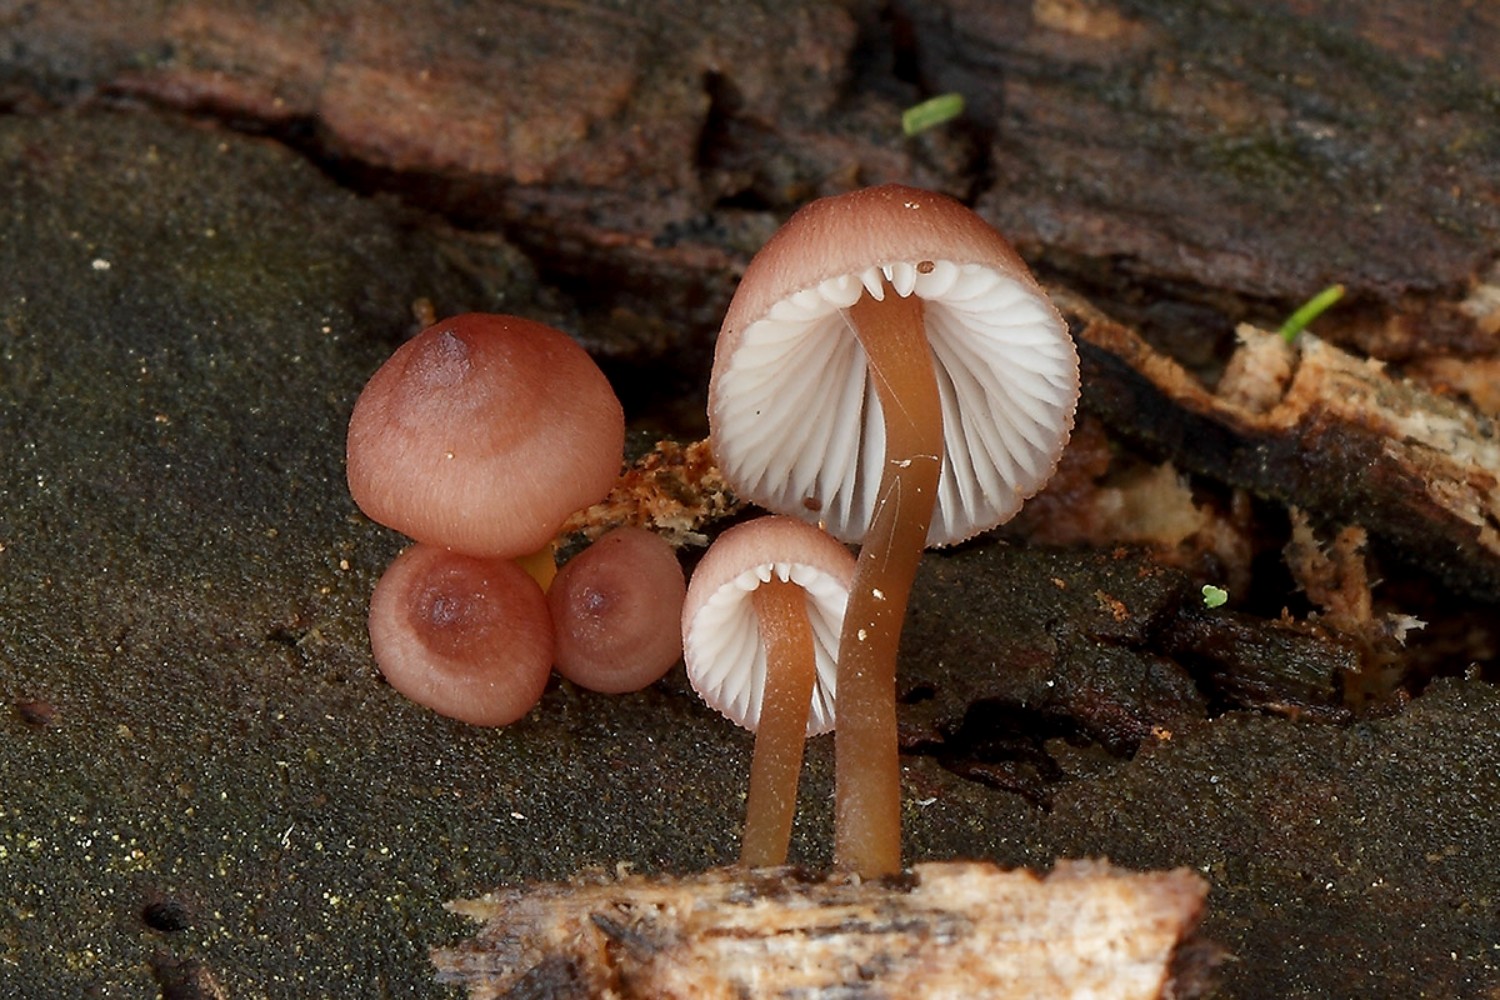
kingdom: Fungi
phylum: Basidiomycota
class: Agaricomycetes
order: Agaricales
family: Mycenaceae
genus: Mycena
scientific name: Mycena renati
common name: smuk huesvamp
